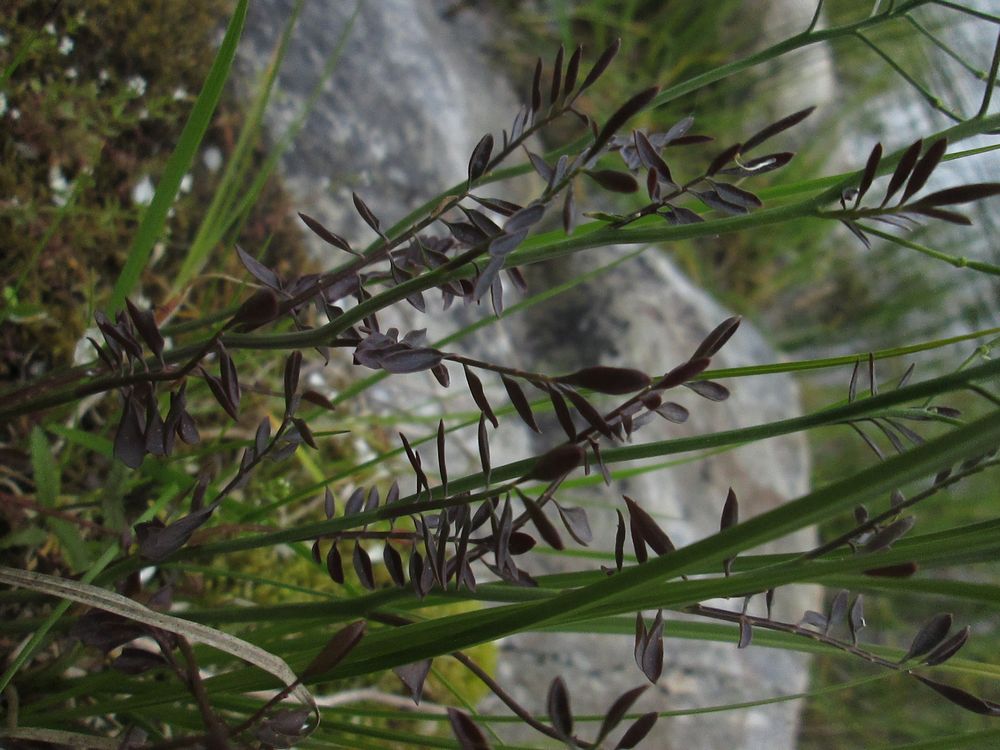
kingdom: Plantae
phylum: Tracheophyta
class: Magnoliopsida
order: Brassicales
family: Brassicaceae
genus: Cardamine
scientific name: Cardamine dentata
